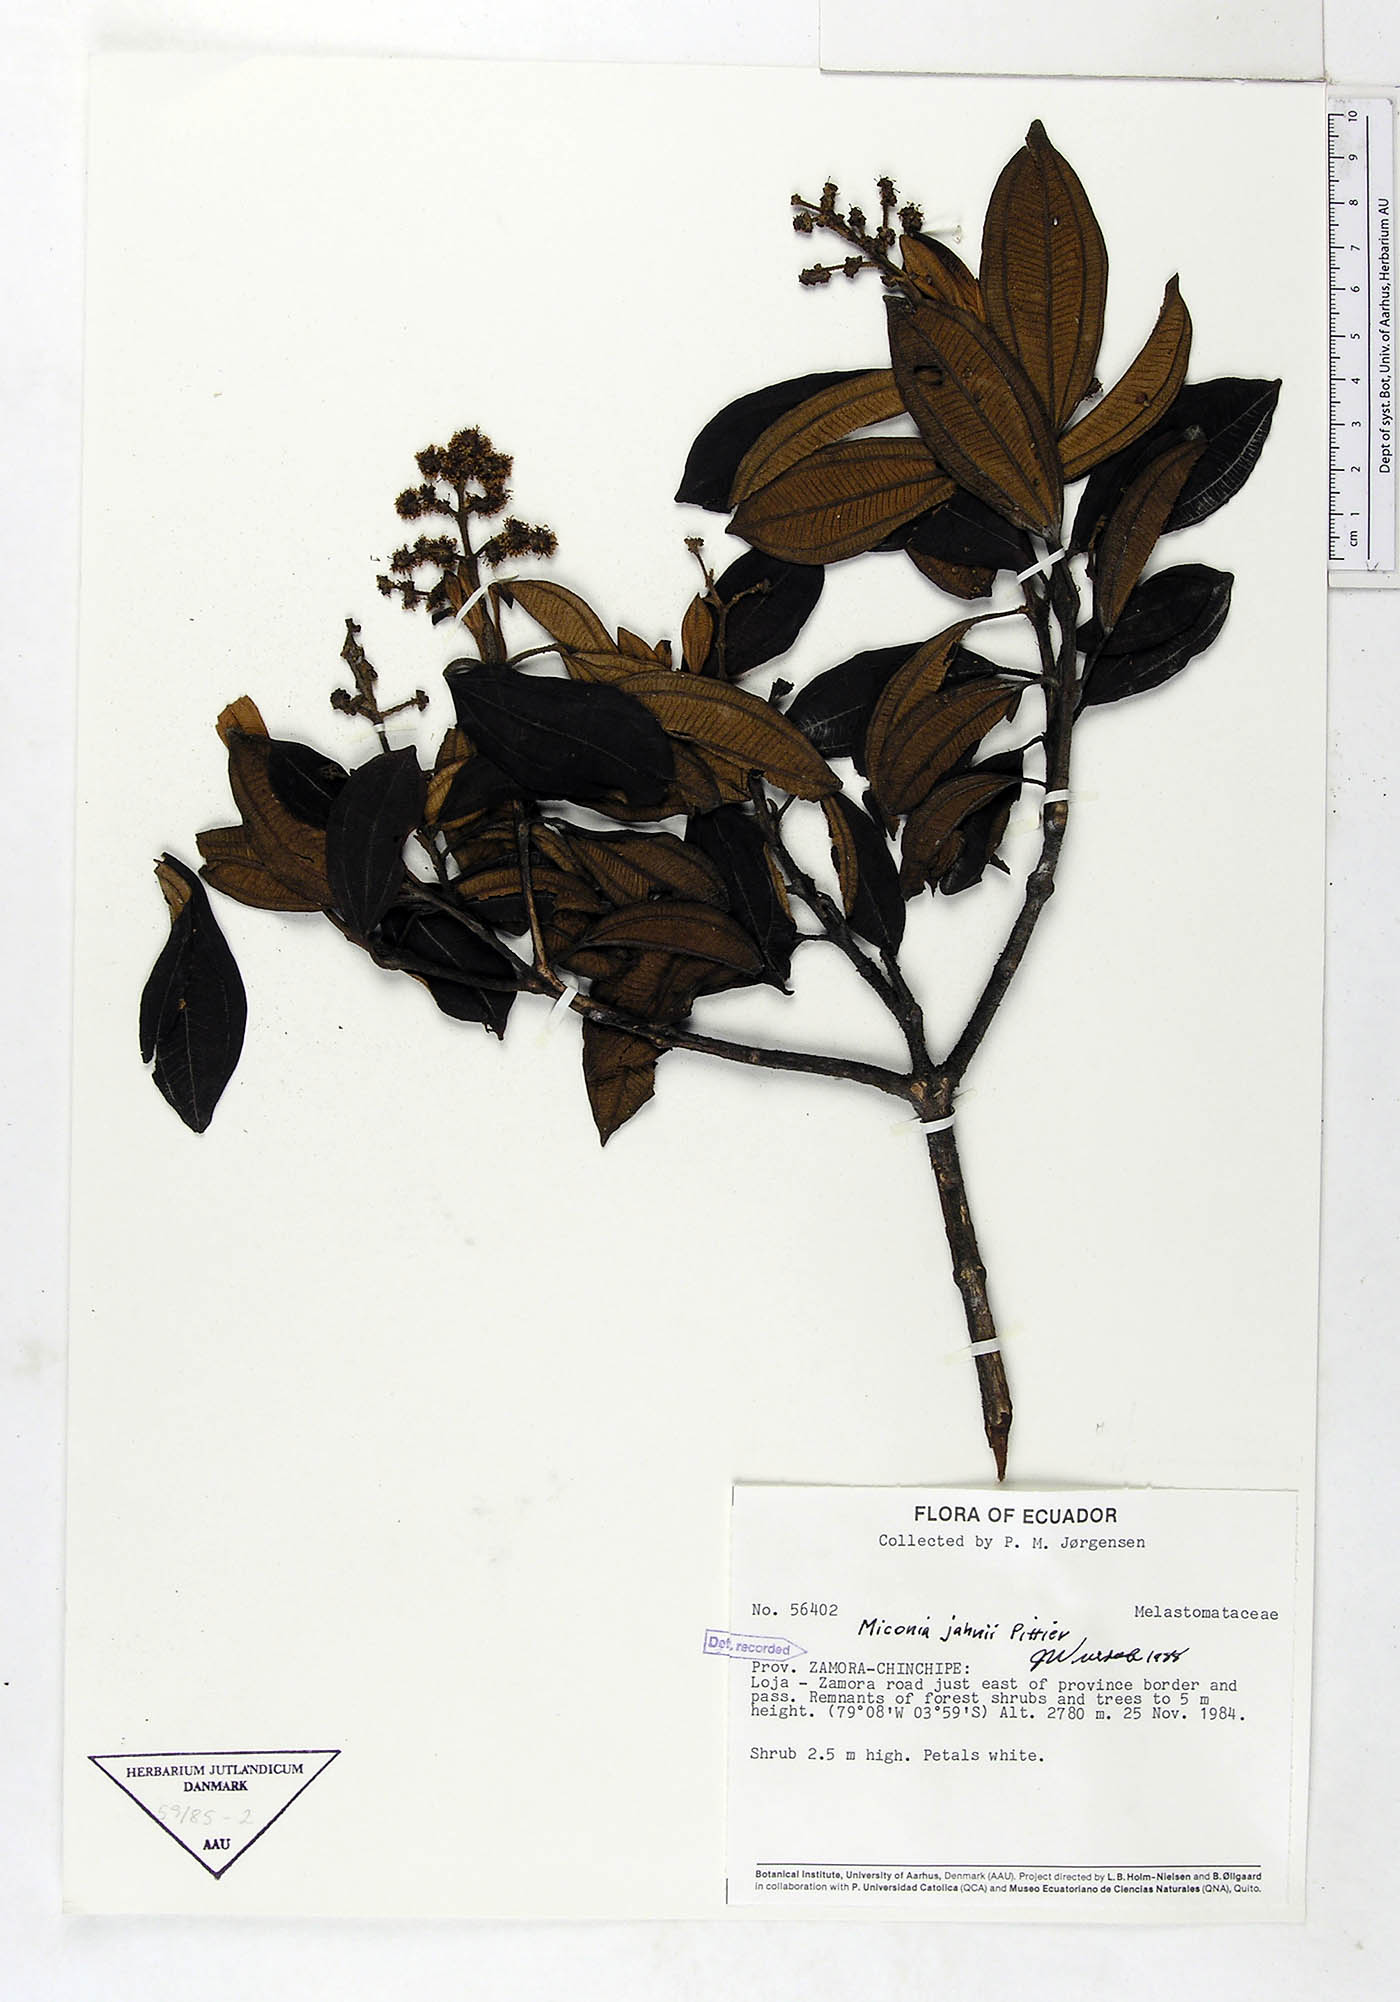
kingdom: Plantae
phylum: Tracheophyta
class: Magnoliopsida
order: Myrtales
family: Melastomataceae
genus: Miconia
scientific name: Miconia jahnii
